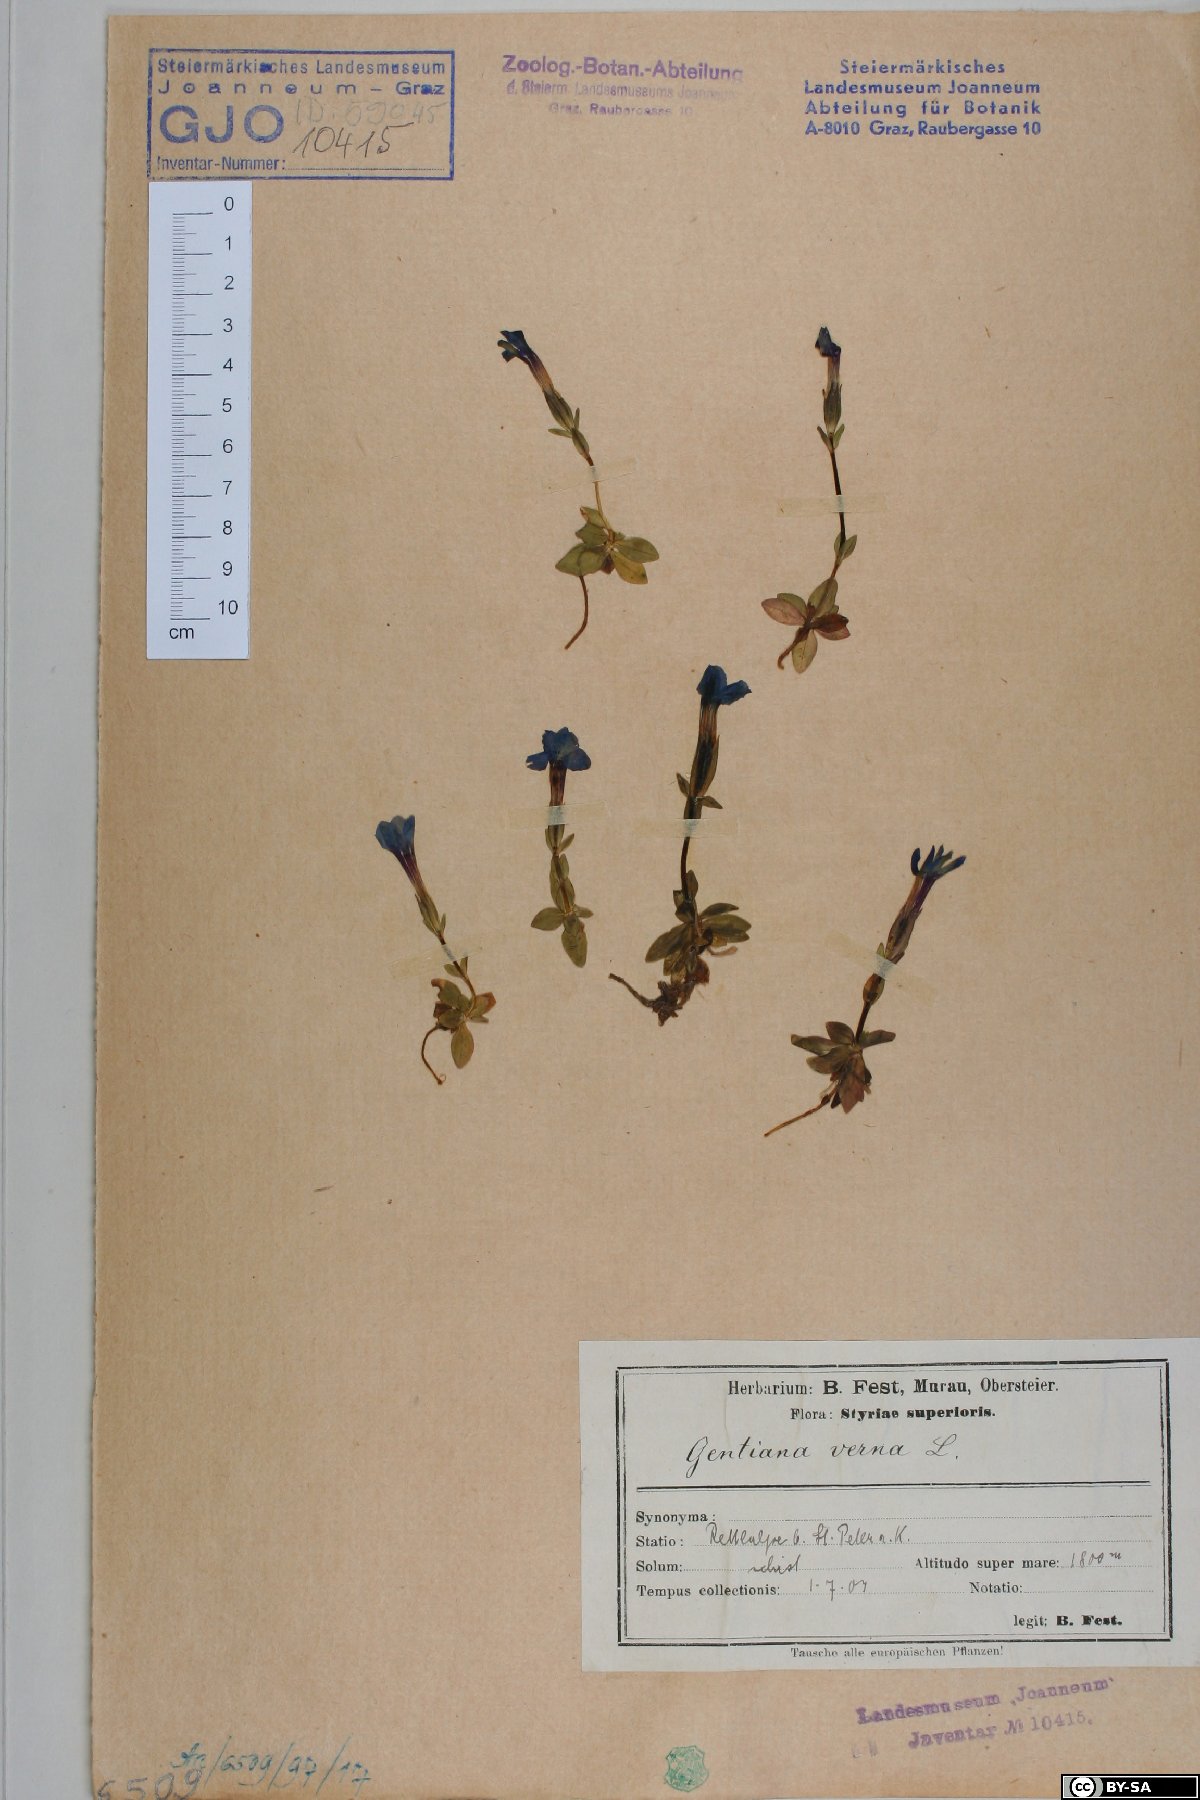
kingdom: Plantae
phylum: Tracheophyta
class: Magnoliopsida
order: Gentianales
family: Gentianaceae
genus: Gentiana
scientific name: Gentiana verna
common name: Spring gentian
